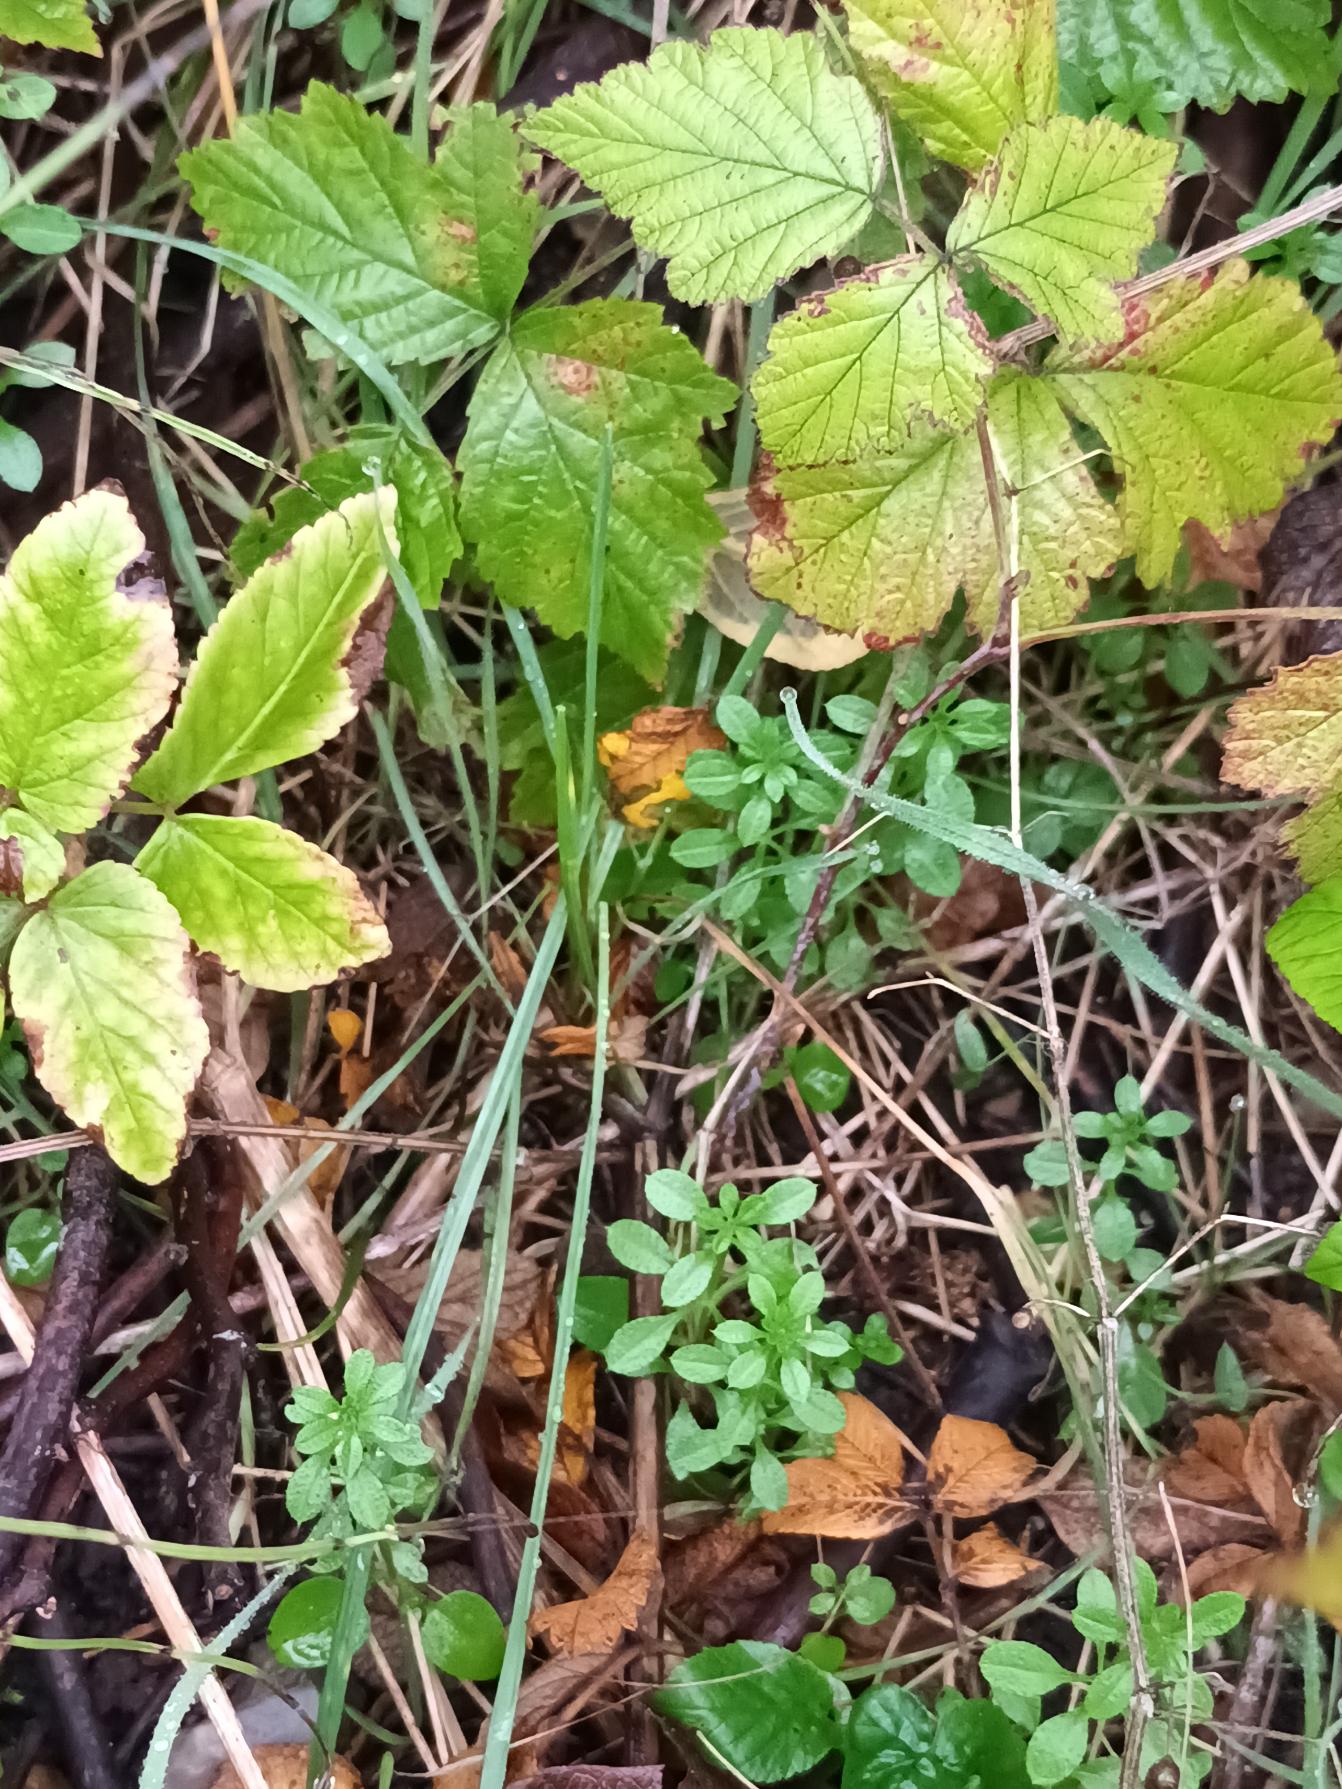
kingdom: Plantae
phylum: Tracheophyta
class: Magnoliopsida
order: Gentianales
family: Rubiaceae
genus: Galium
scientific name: Galium aparine
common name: Burre-snerre
